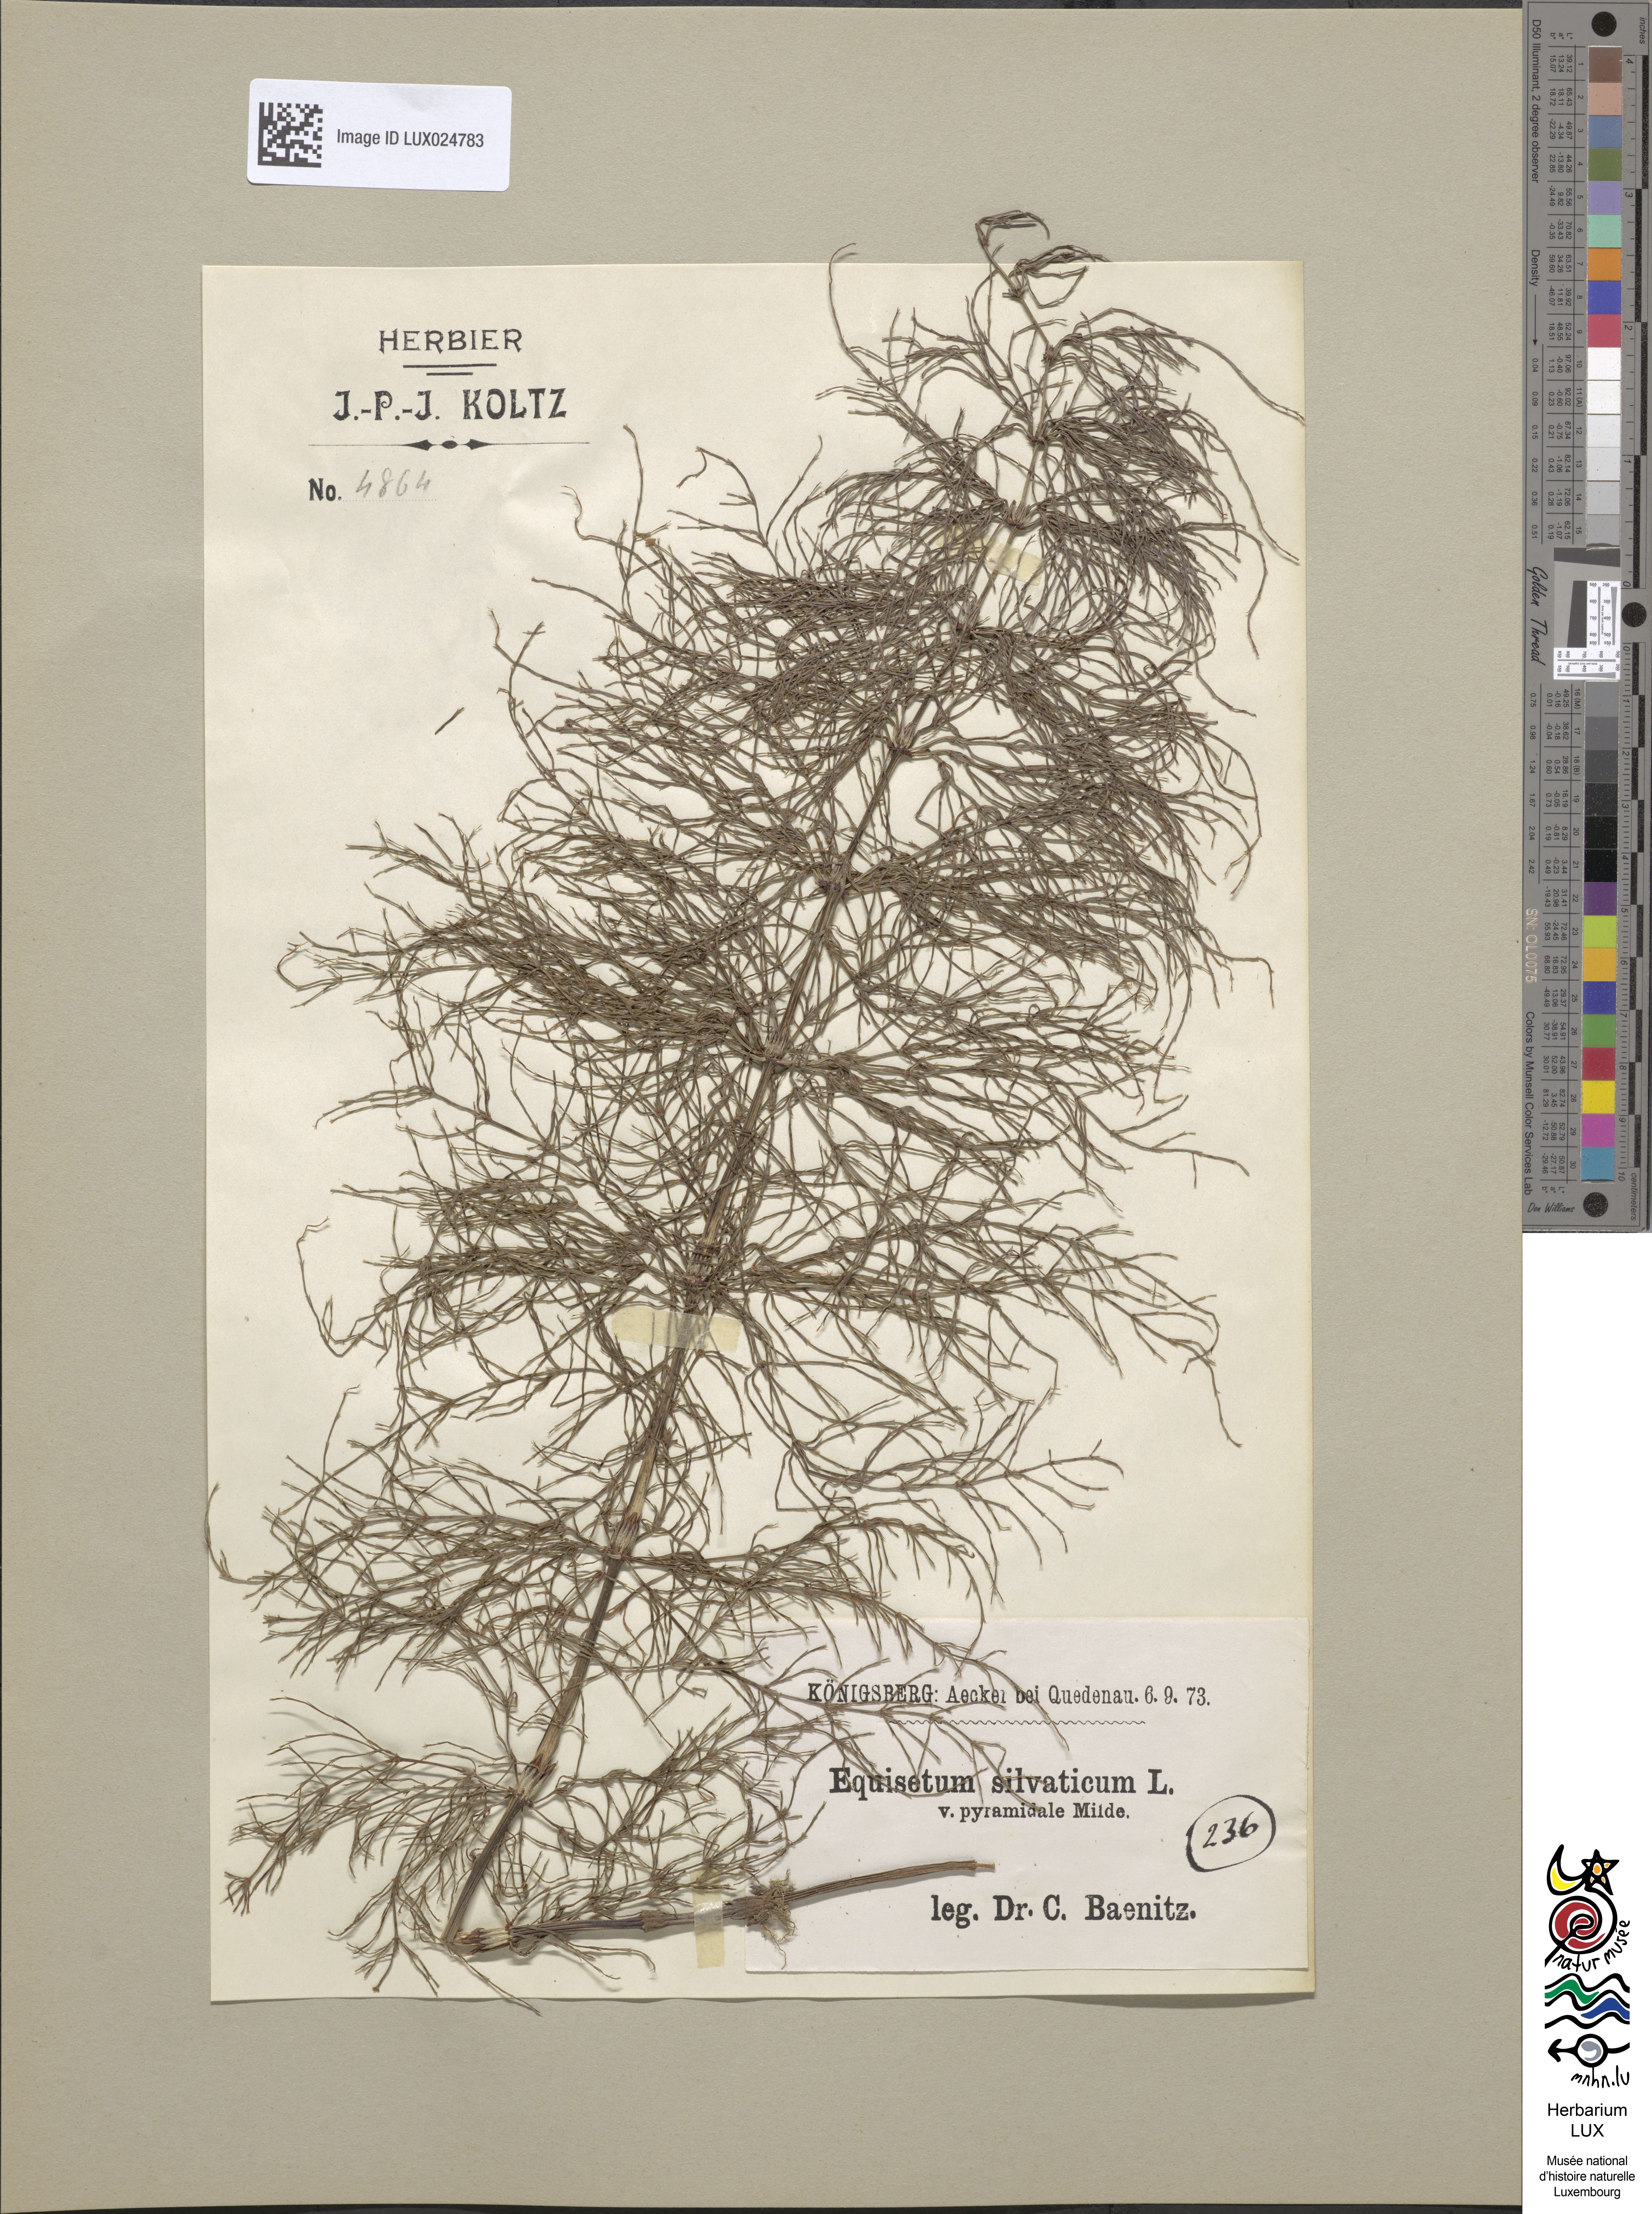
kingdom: Plantae
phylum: Tracheophyta
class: Polypodiopsida
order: Equisetales
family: Equisetaceae
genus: Equisetum
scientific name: Equisetum sylvaticum
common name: Wood horsetail
